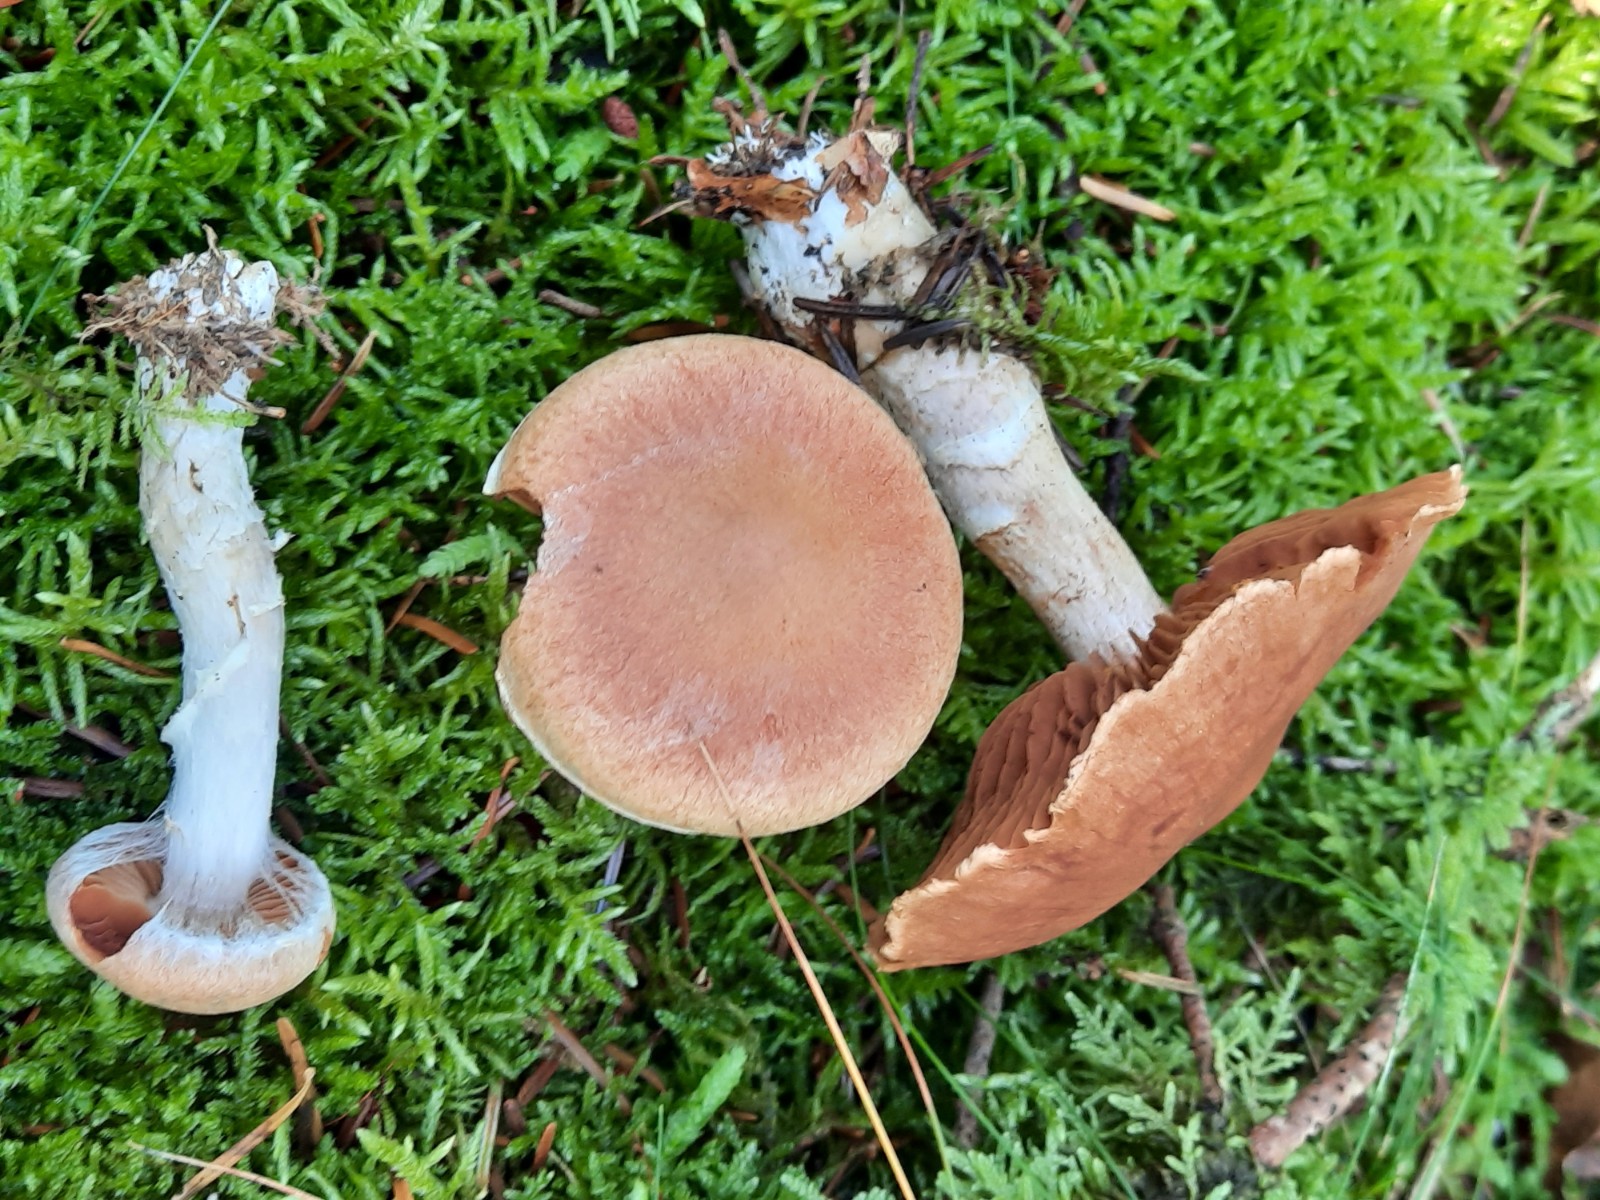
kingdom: Fungi
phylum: Basidiomycota
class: Agaricomycetes
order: Agaricales
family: Cortinariaceae
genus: Cortinarius
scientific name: Cortinarius laniger
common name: teglbladet slørhat
